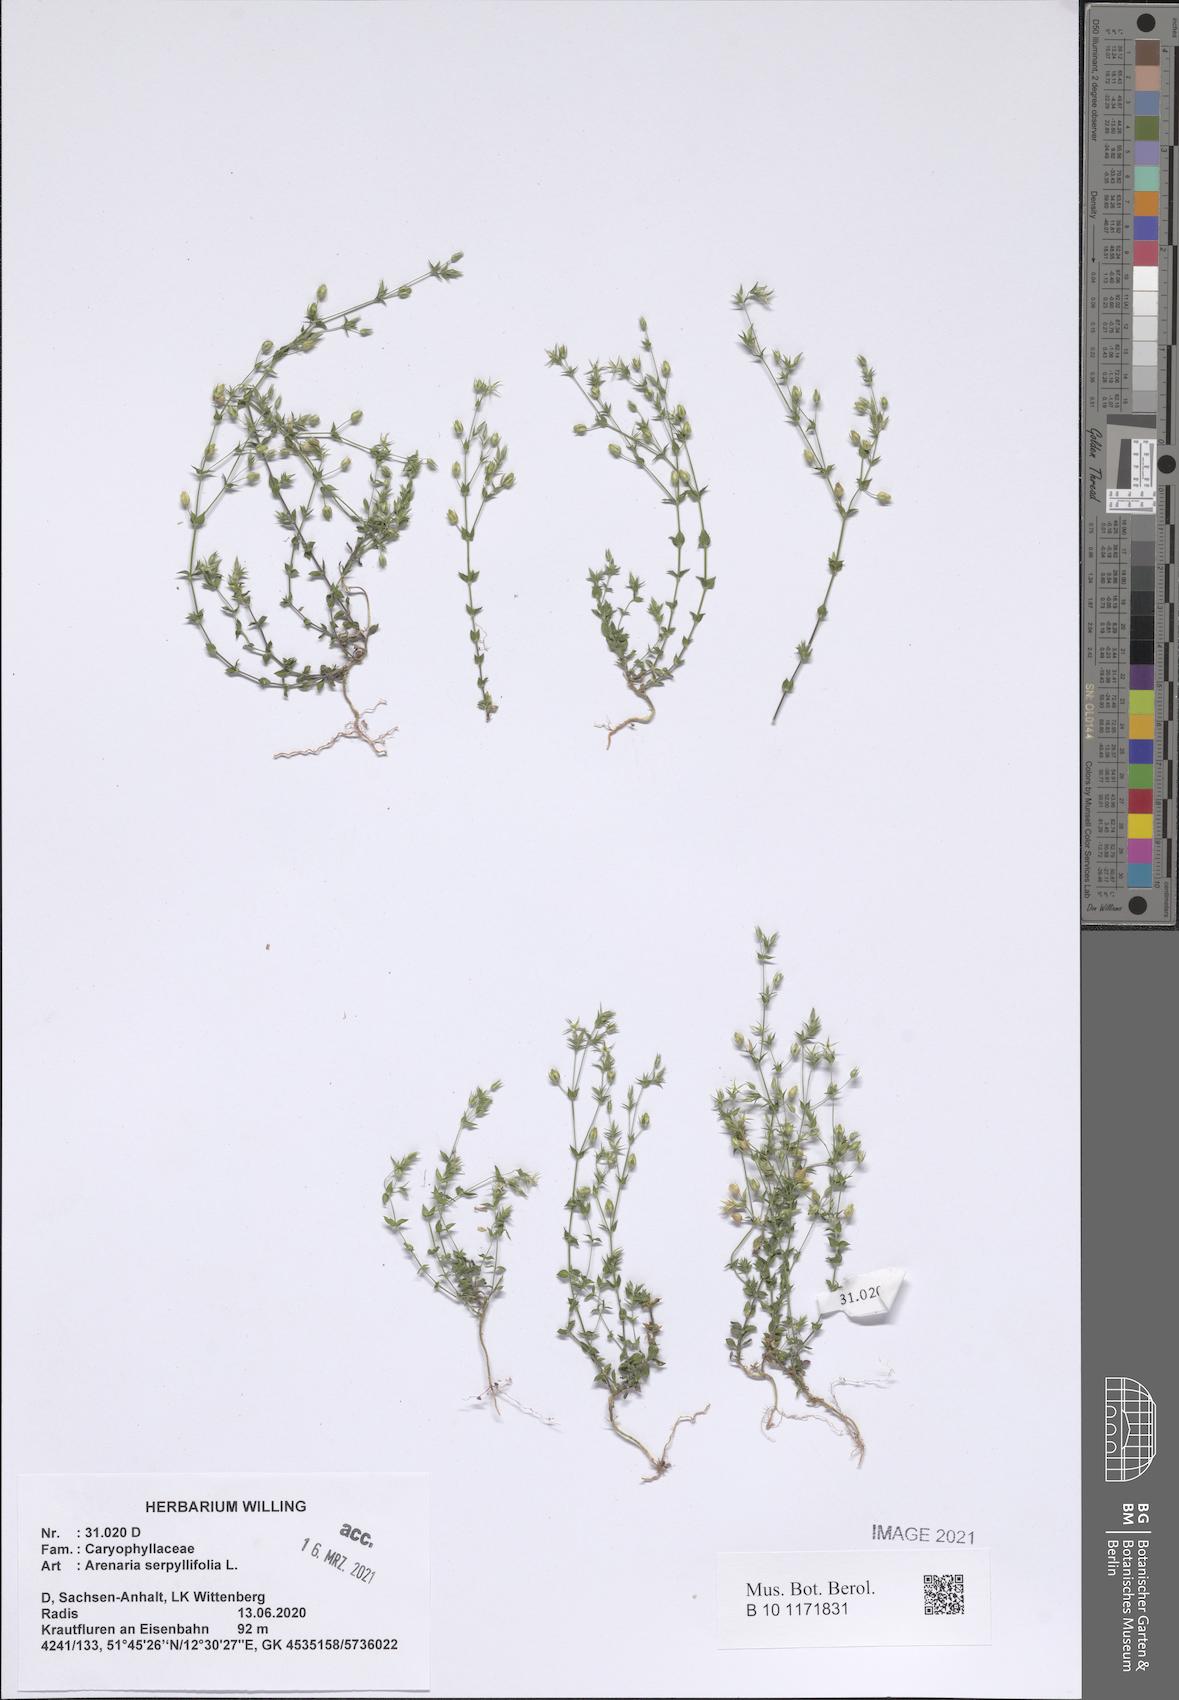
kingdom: Plantae
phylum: Tracheophyta
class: Magnoliopsida
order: Caryophyllales
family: Caryophyllaceae
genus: Arenaria
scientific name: Arenaria serpyllifolia
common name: Thyme-leaved sandwort
